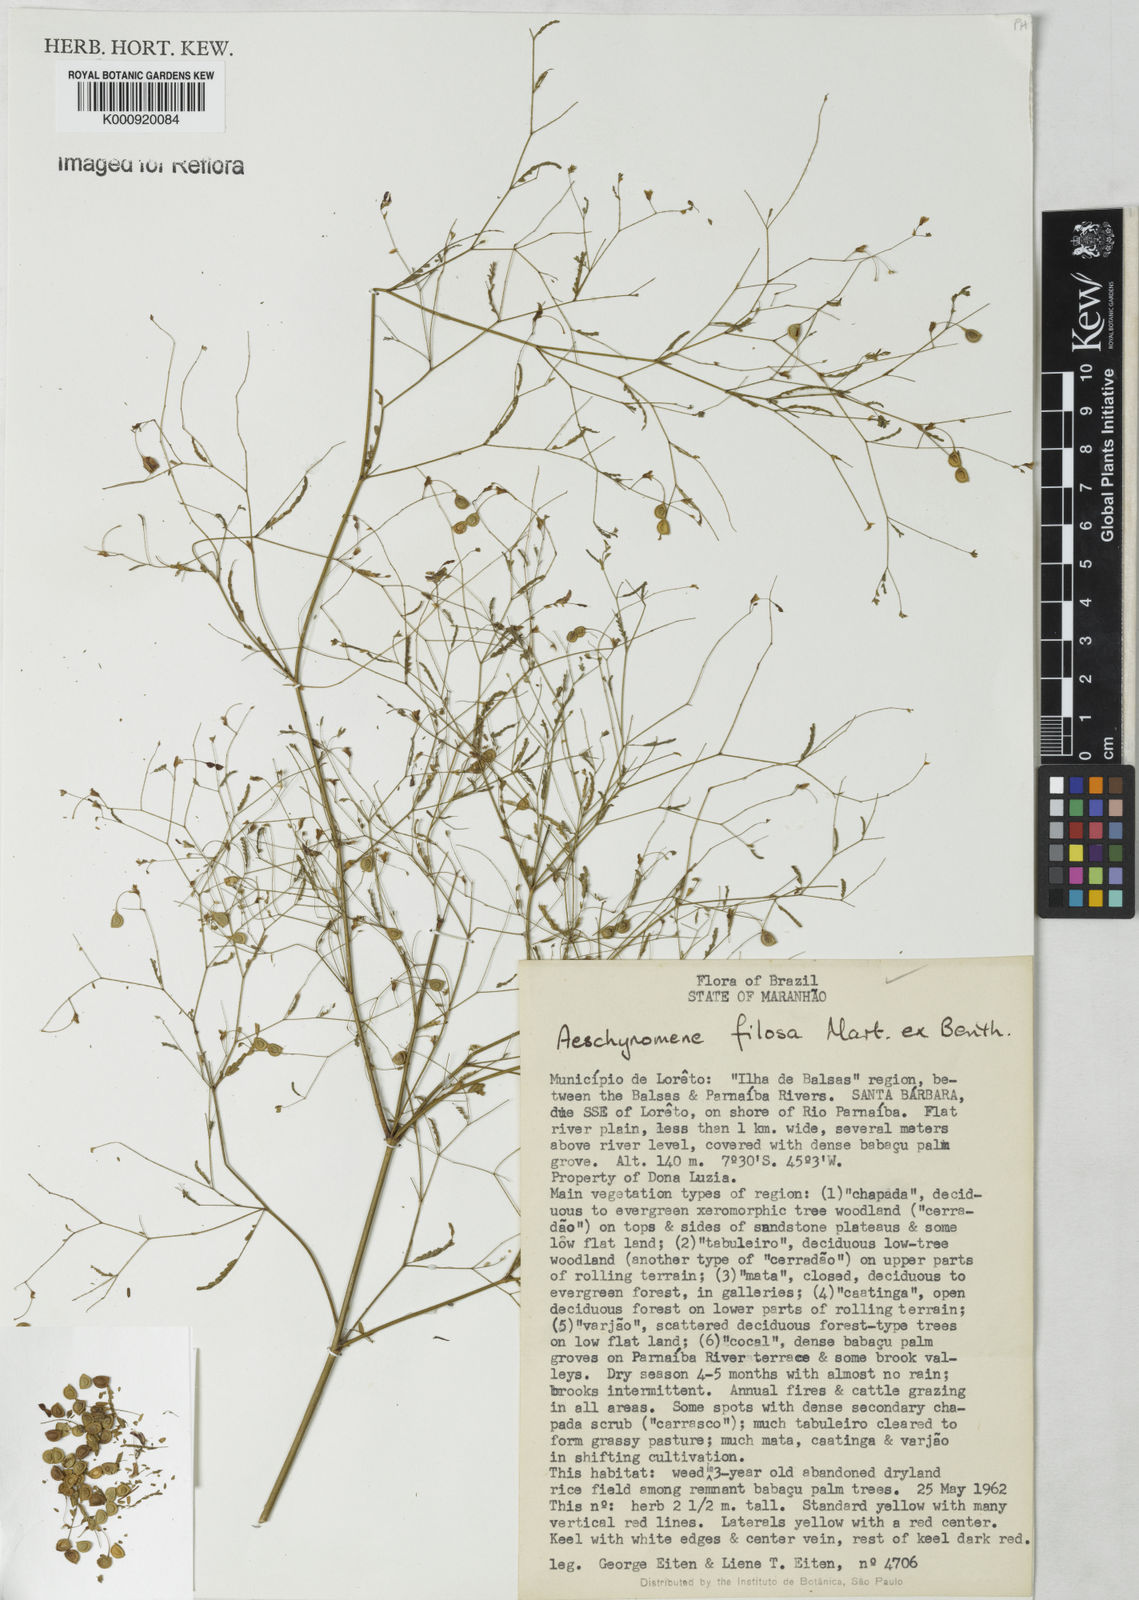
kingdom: Plantae
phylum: Tracheophyta
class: Magnoliopsida
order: Fabales
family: Fabaceae
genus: Aeschynomene
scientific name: Aeschynomene filosa
